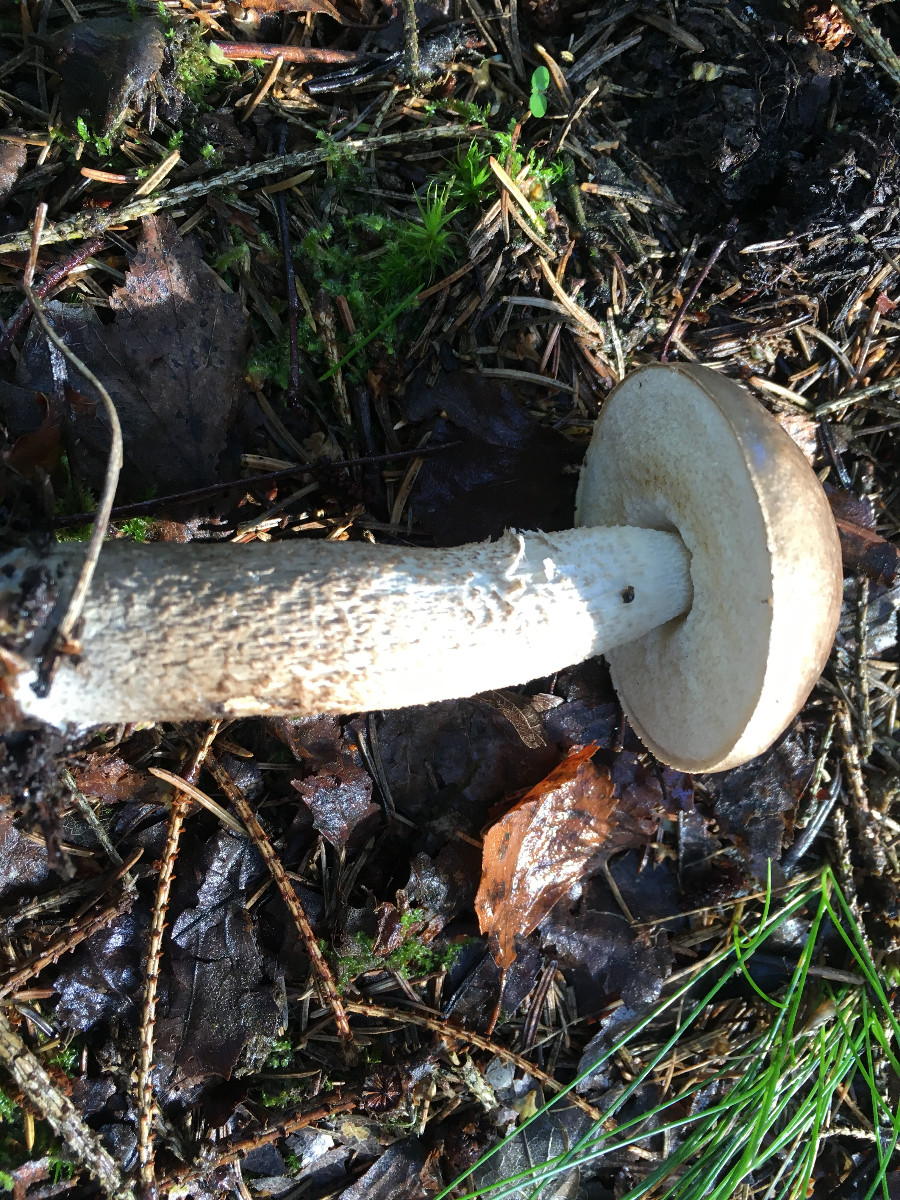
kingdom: Fungi
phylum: Basidiomycota
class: Agaricomycetes
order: Boletales
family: Boletaceae
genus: Leccinum
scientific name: Leccinum
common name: skælrørhat
